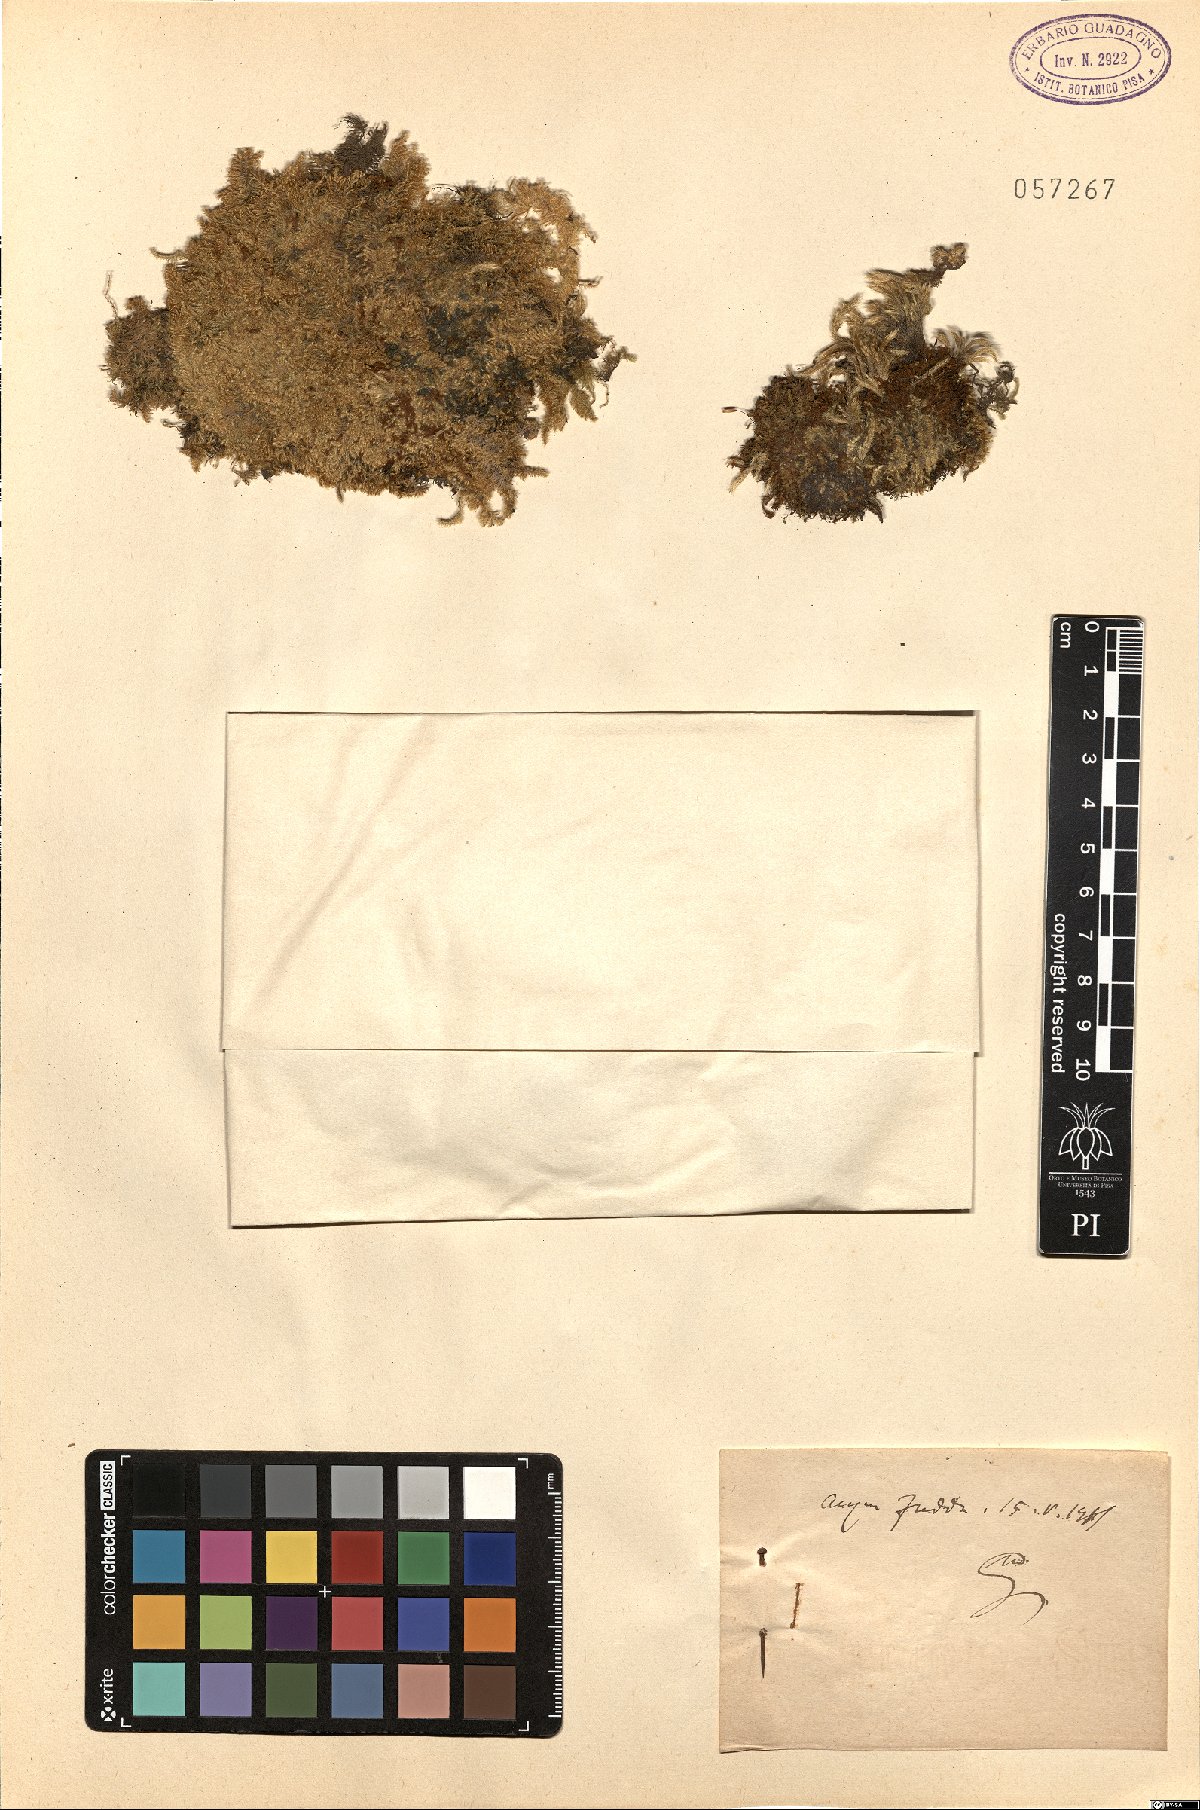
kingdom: Plantae
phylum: Tracheophyta
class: Magnoliopsida
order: Boraginales
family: Boraginaceae
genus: Myosotis
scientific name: Myosotis
